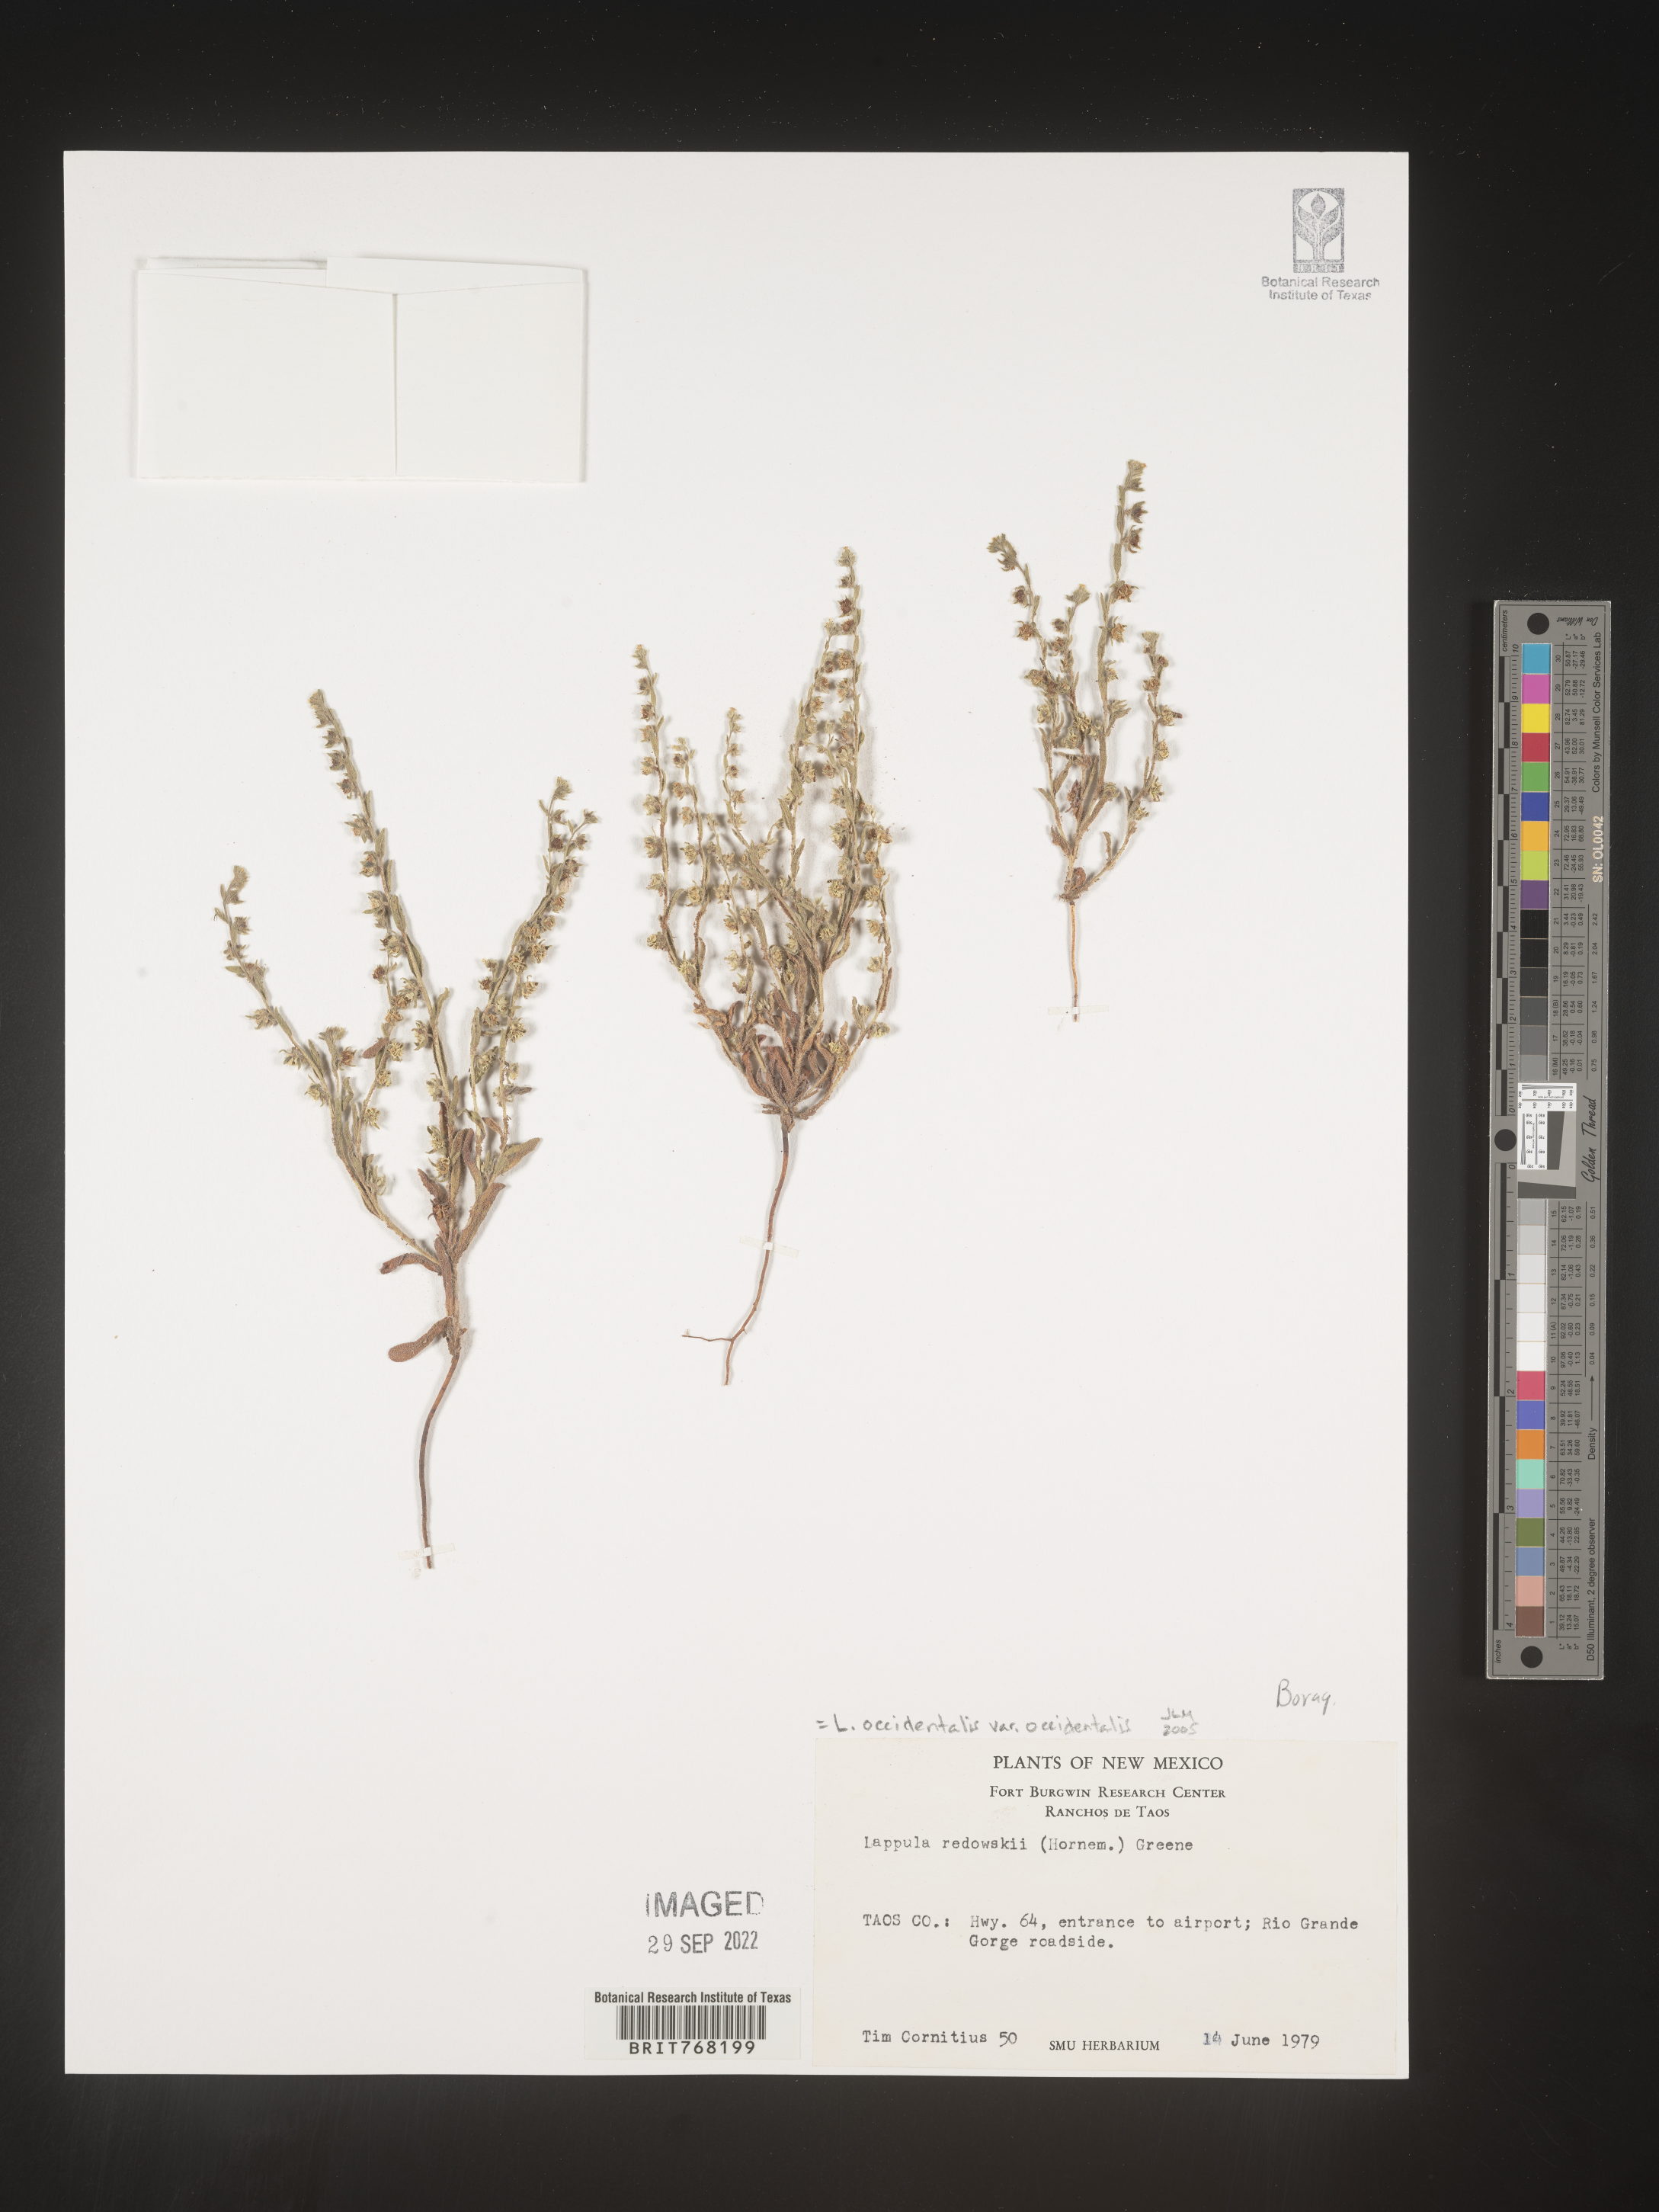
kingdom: Plantae
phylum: Tracheophyta
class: Magnoliopsida
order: Boraginales
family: Boraginaceae
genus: Lappula
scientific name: Lappula
